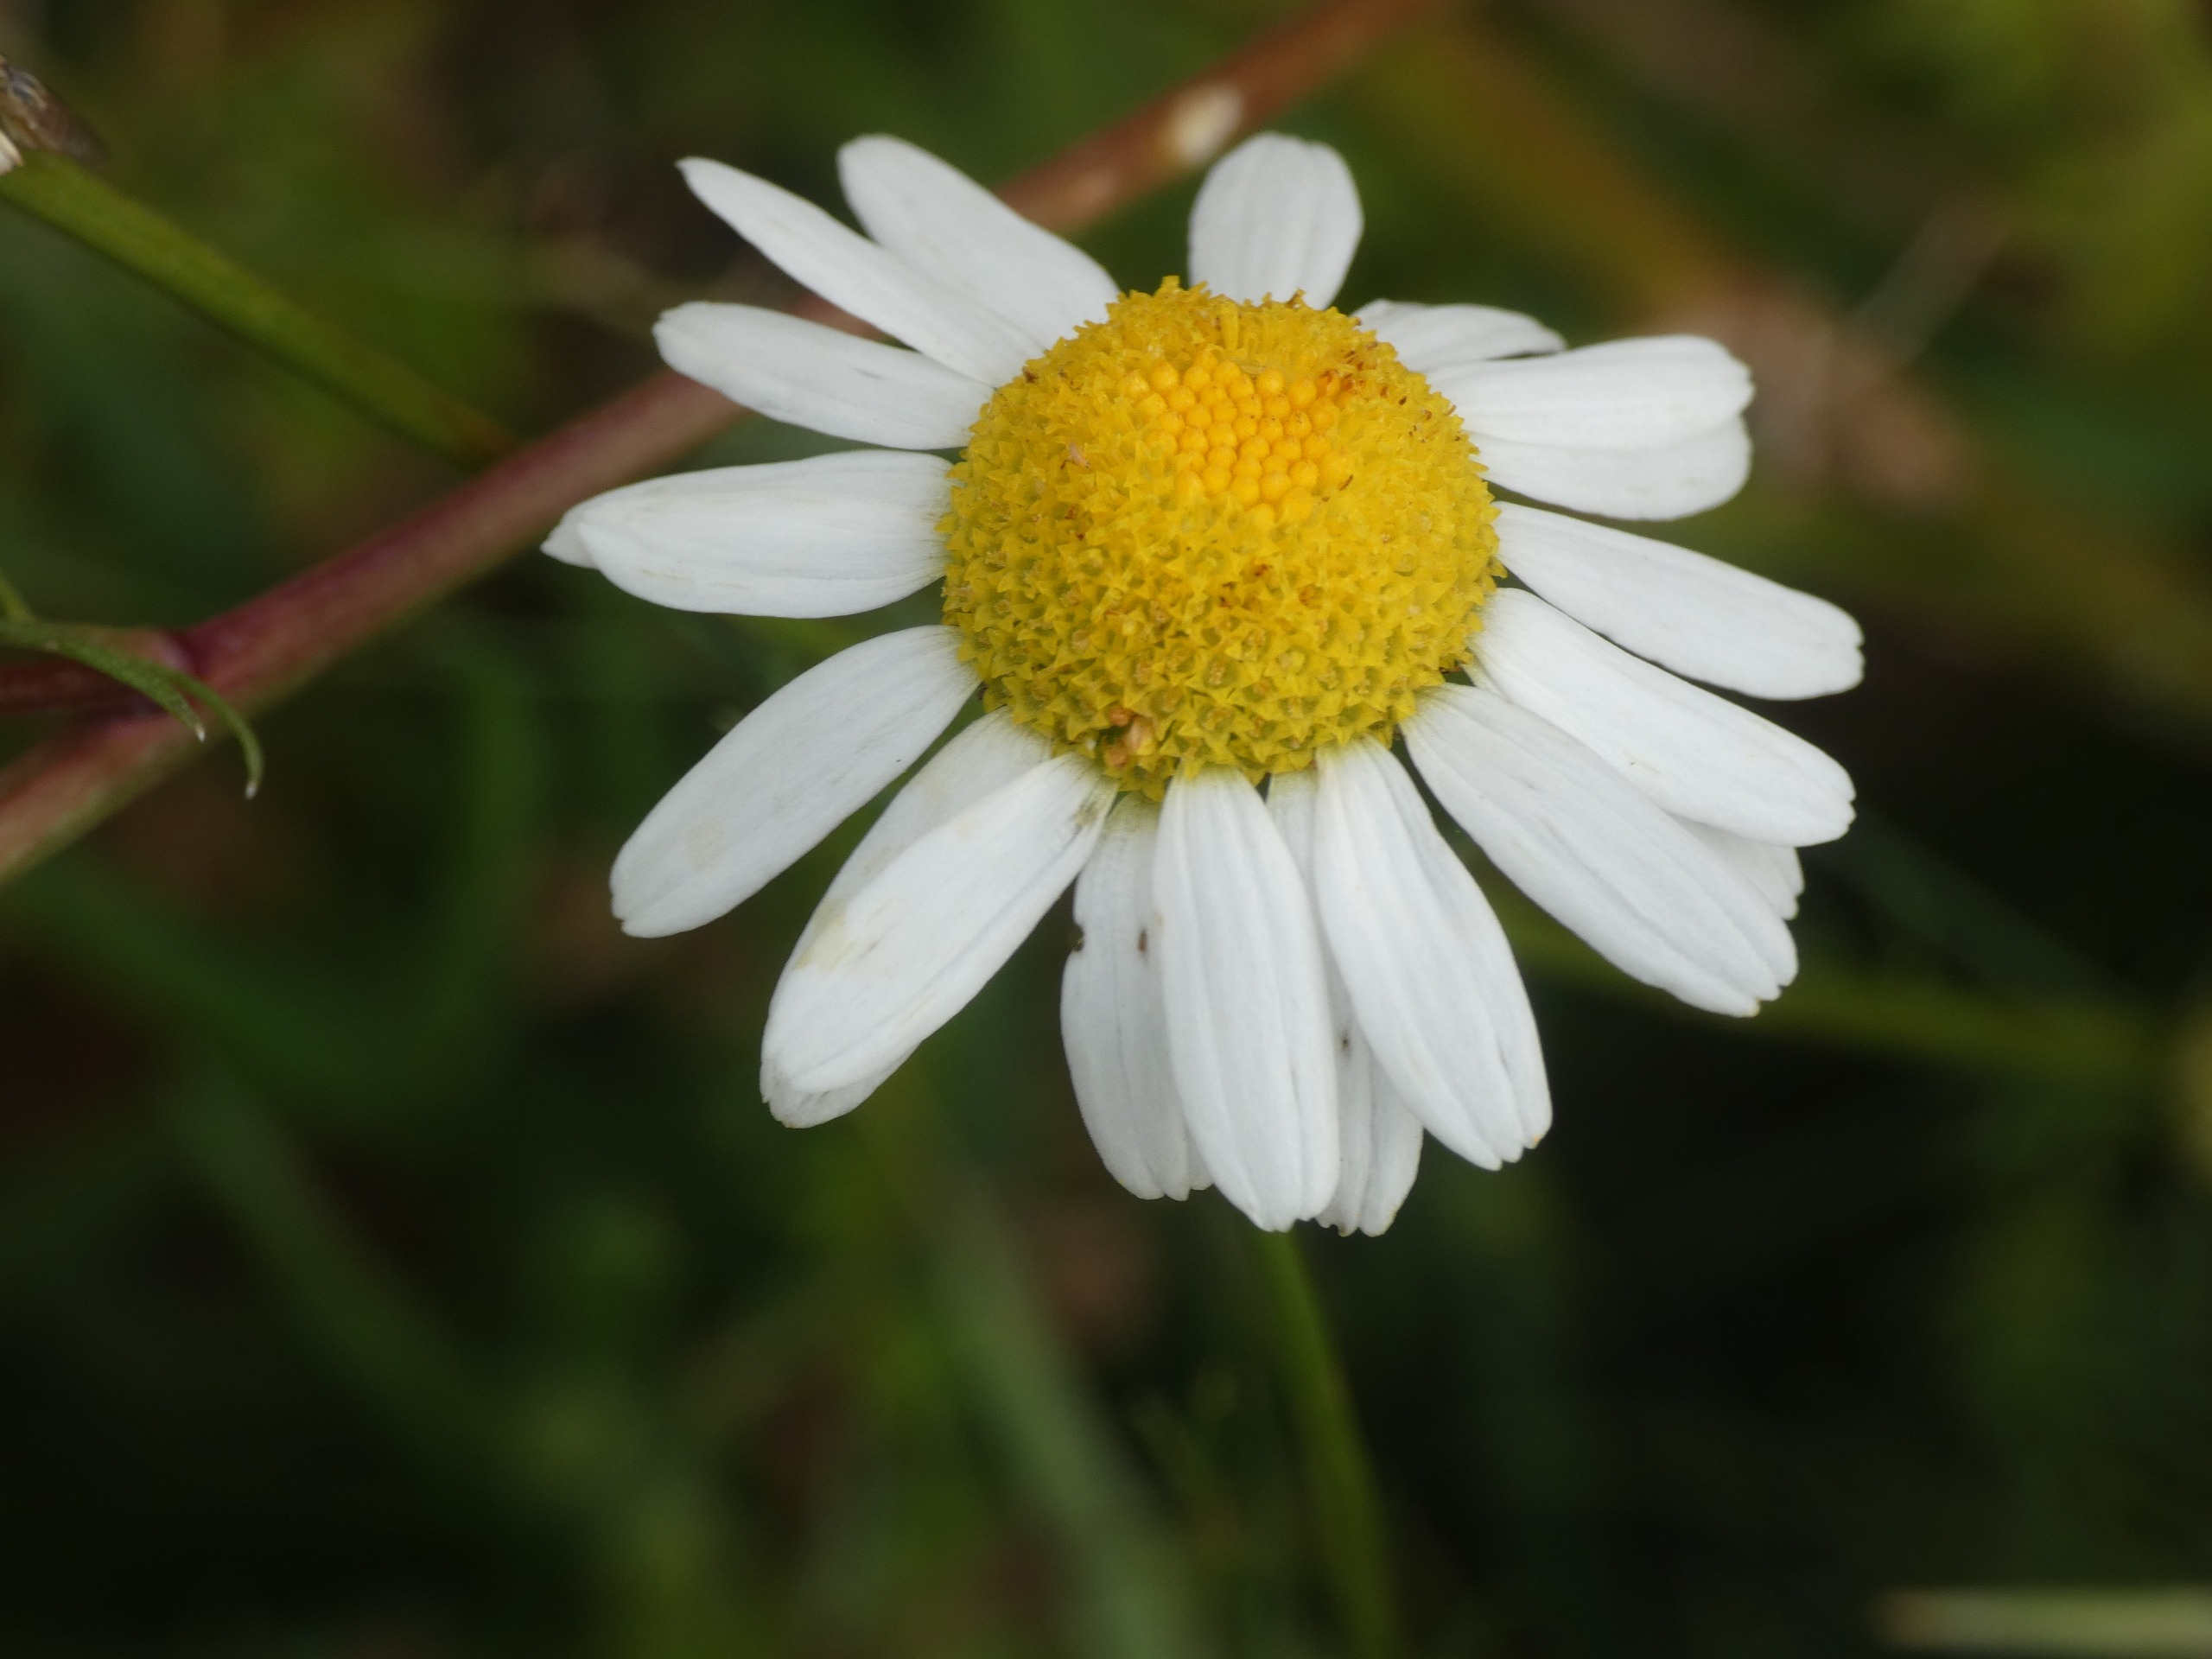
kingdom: Plantae
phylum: Tracheophyta
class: Magnoliopsida
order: Asterales
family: Asteraceae
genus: Tripleurospermum
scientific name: Tripleurospermum inodorum
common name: Lugtløs kamille
